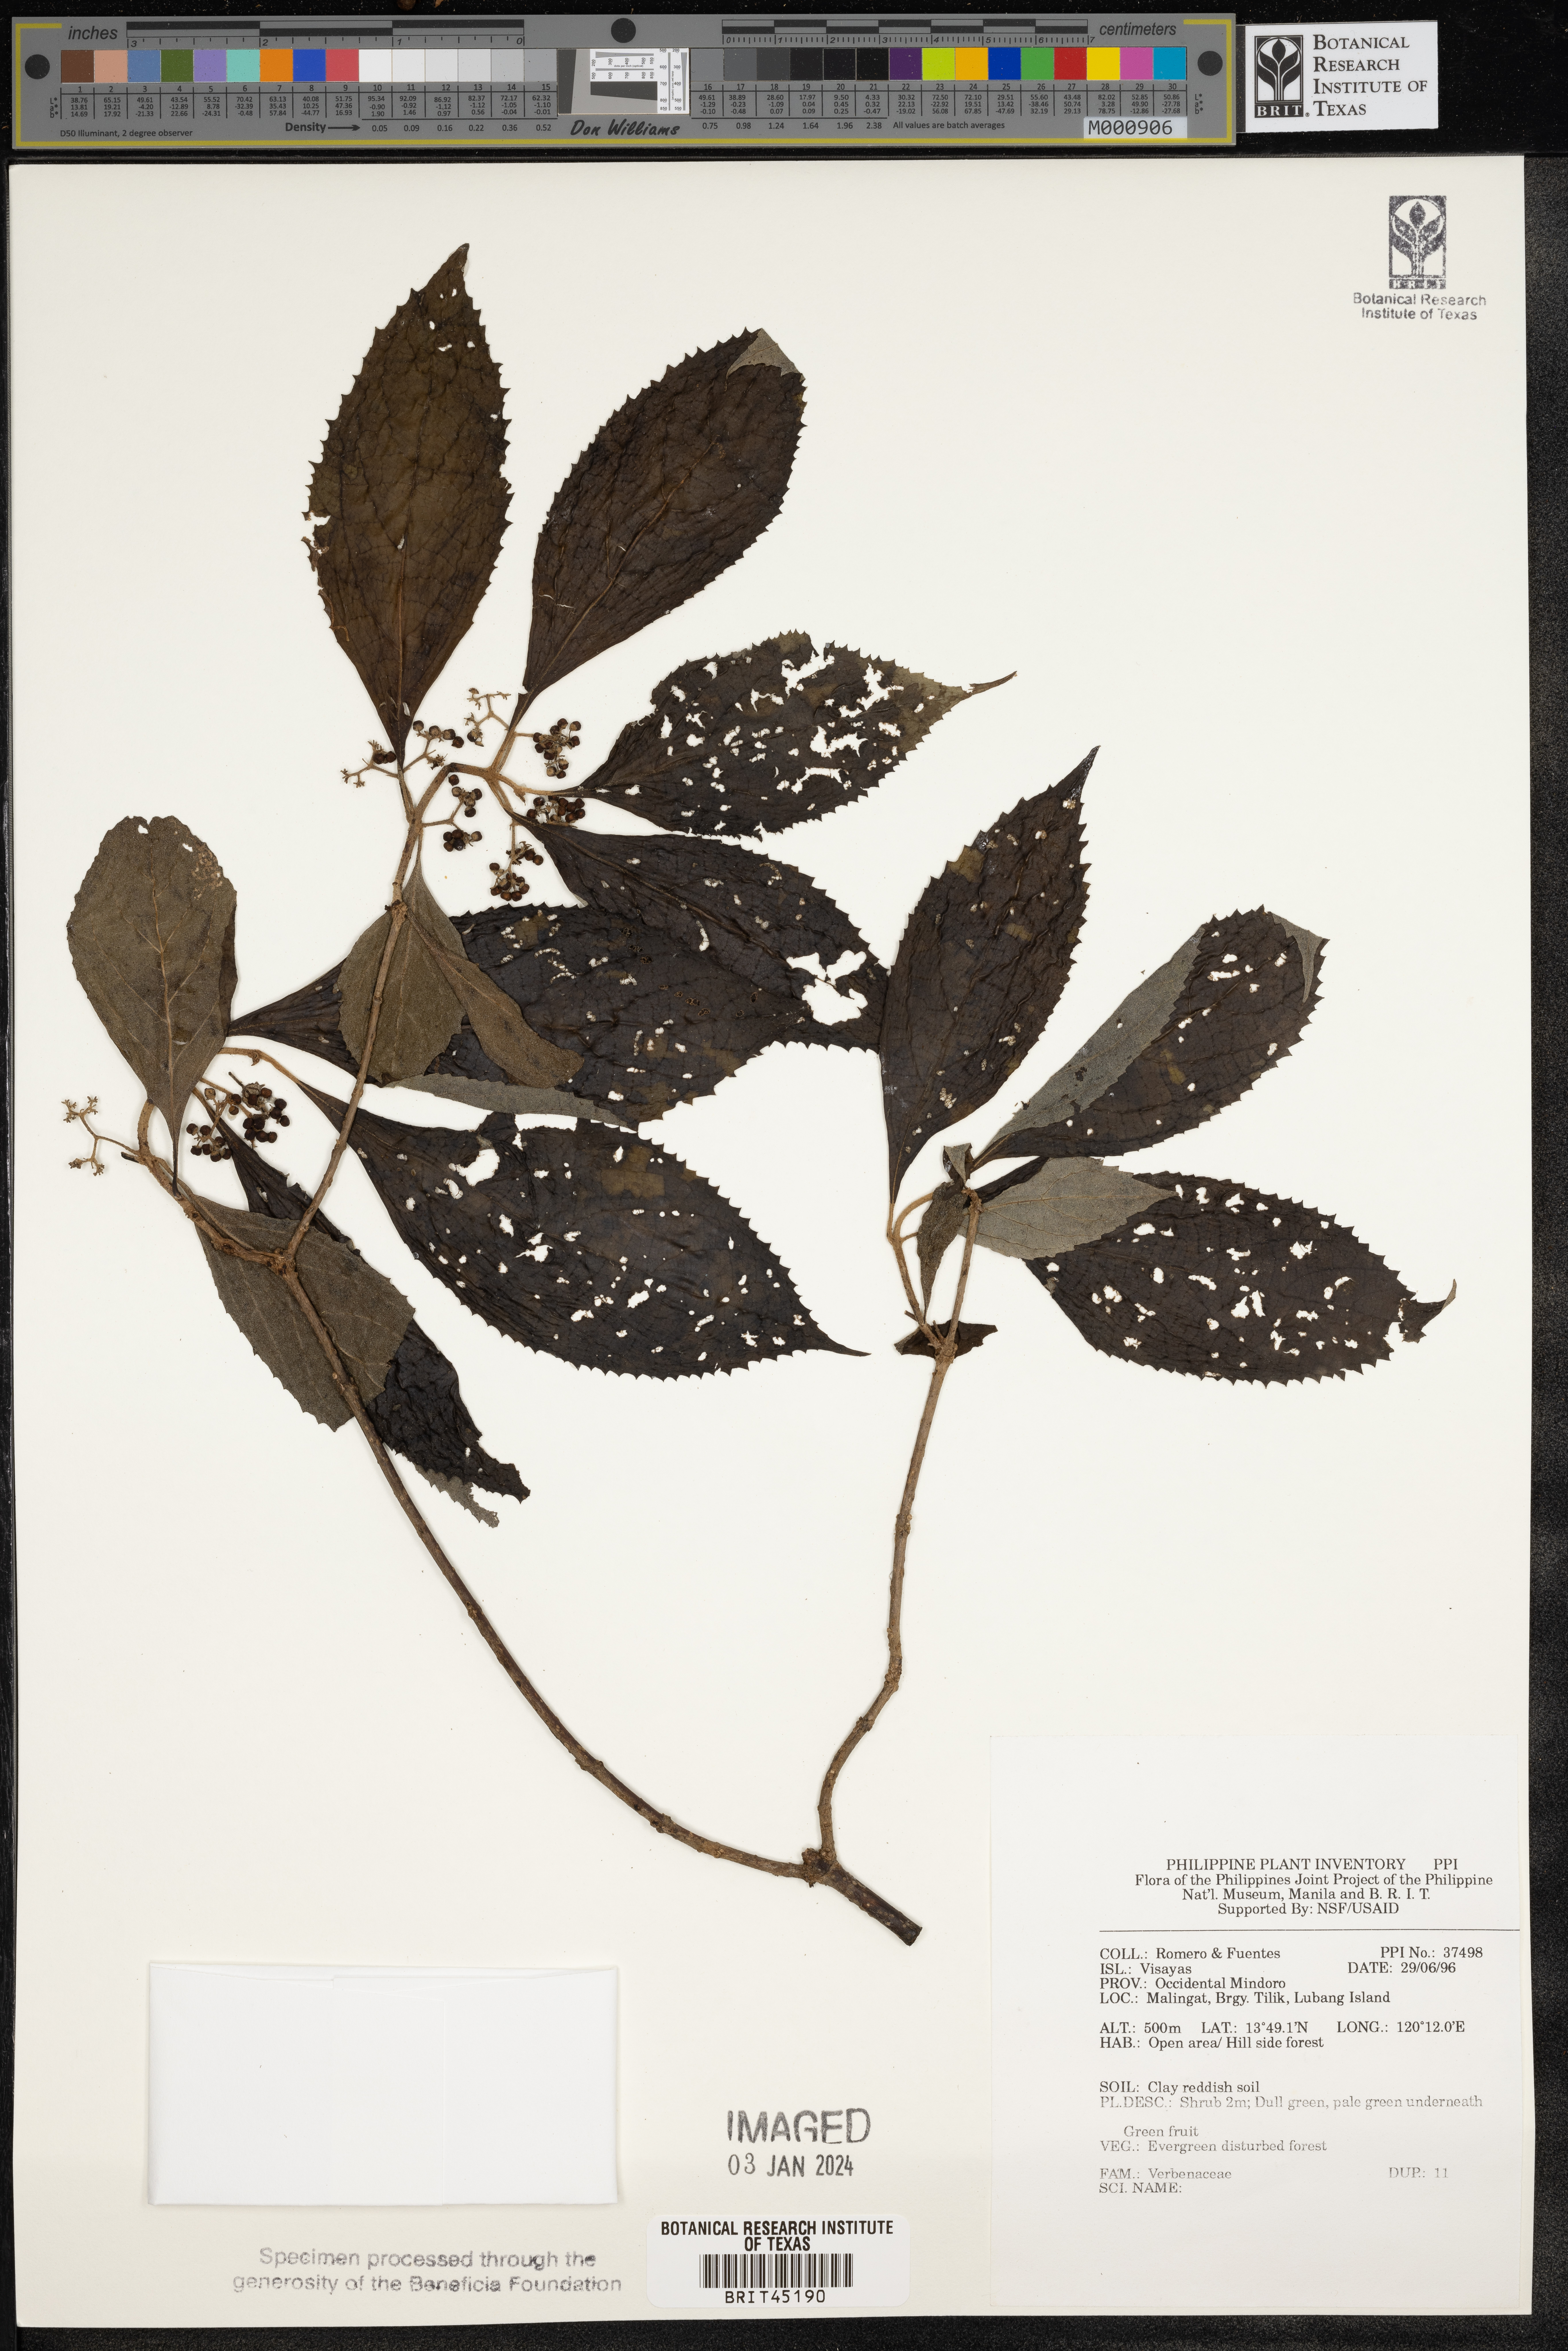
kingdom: Plantae
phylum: Tracheophyta
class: Magnoliopsida
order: Lamiales
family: Verbenaceae
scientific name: Verbenaceae
